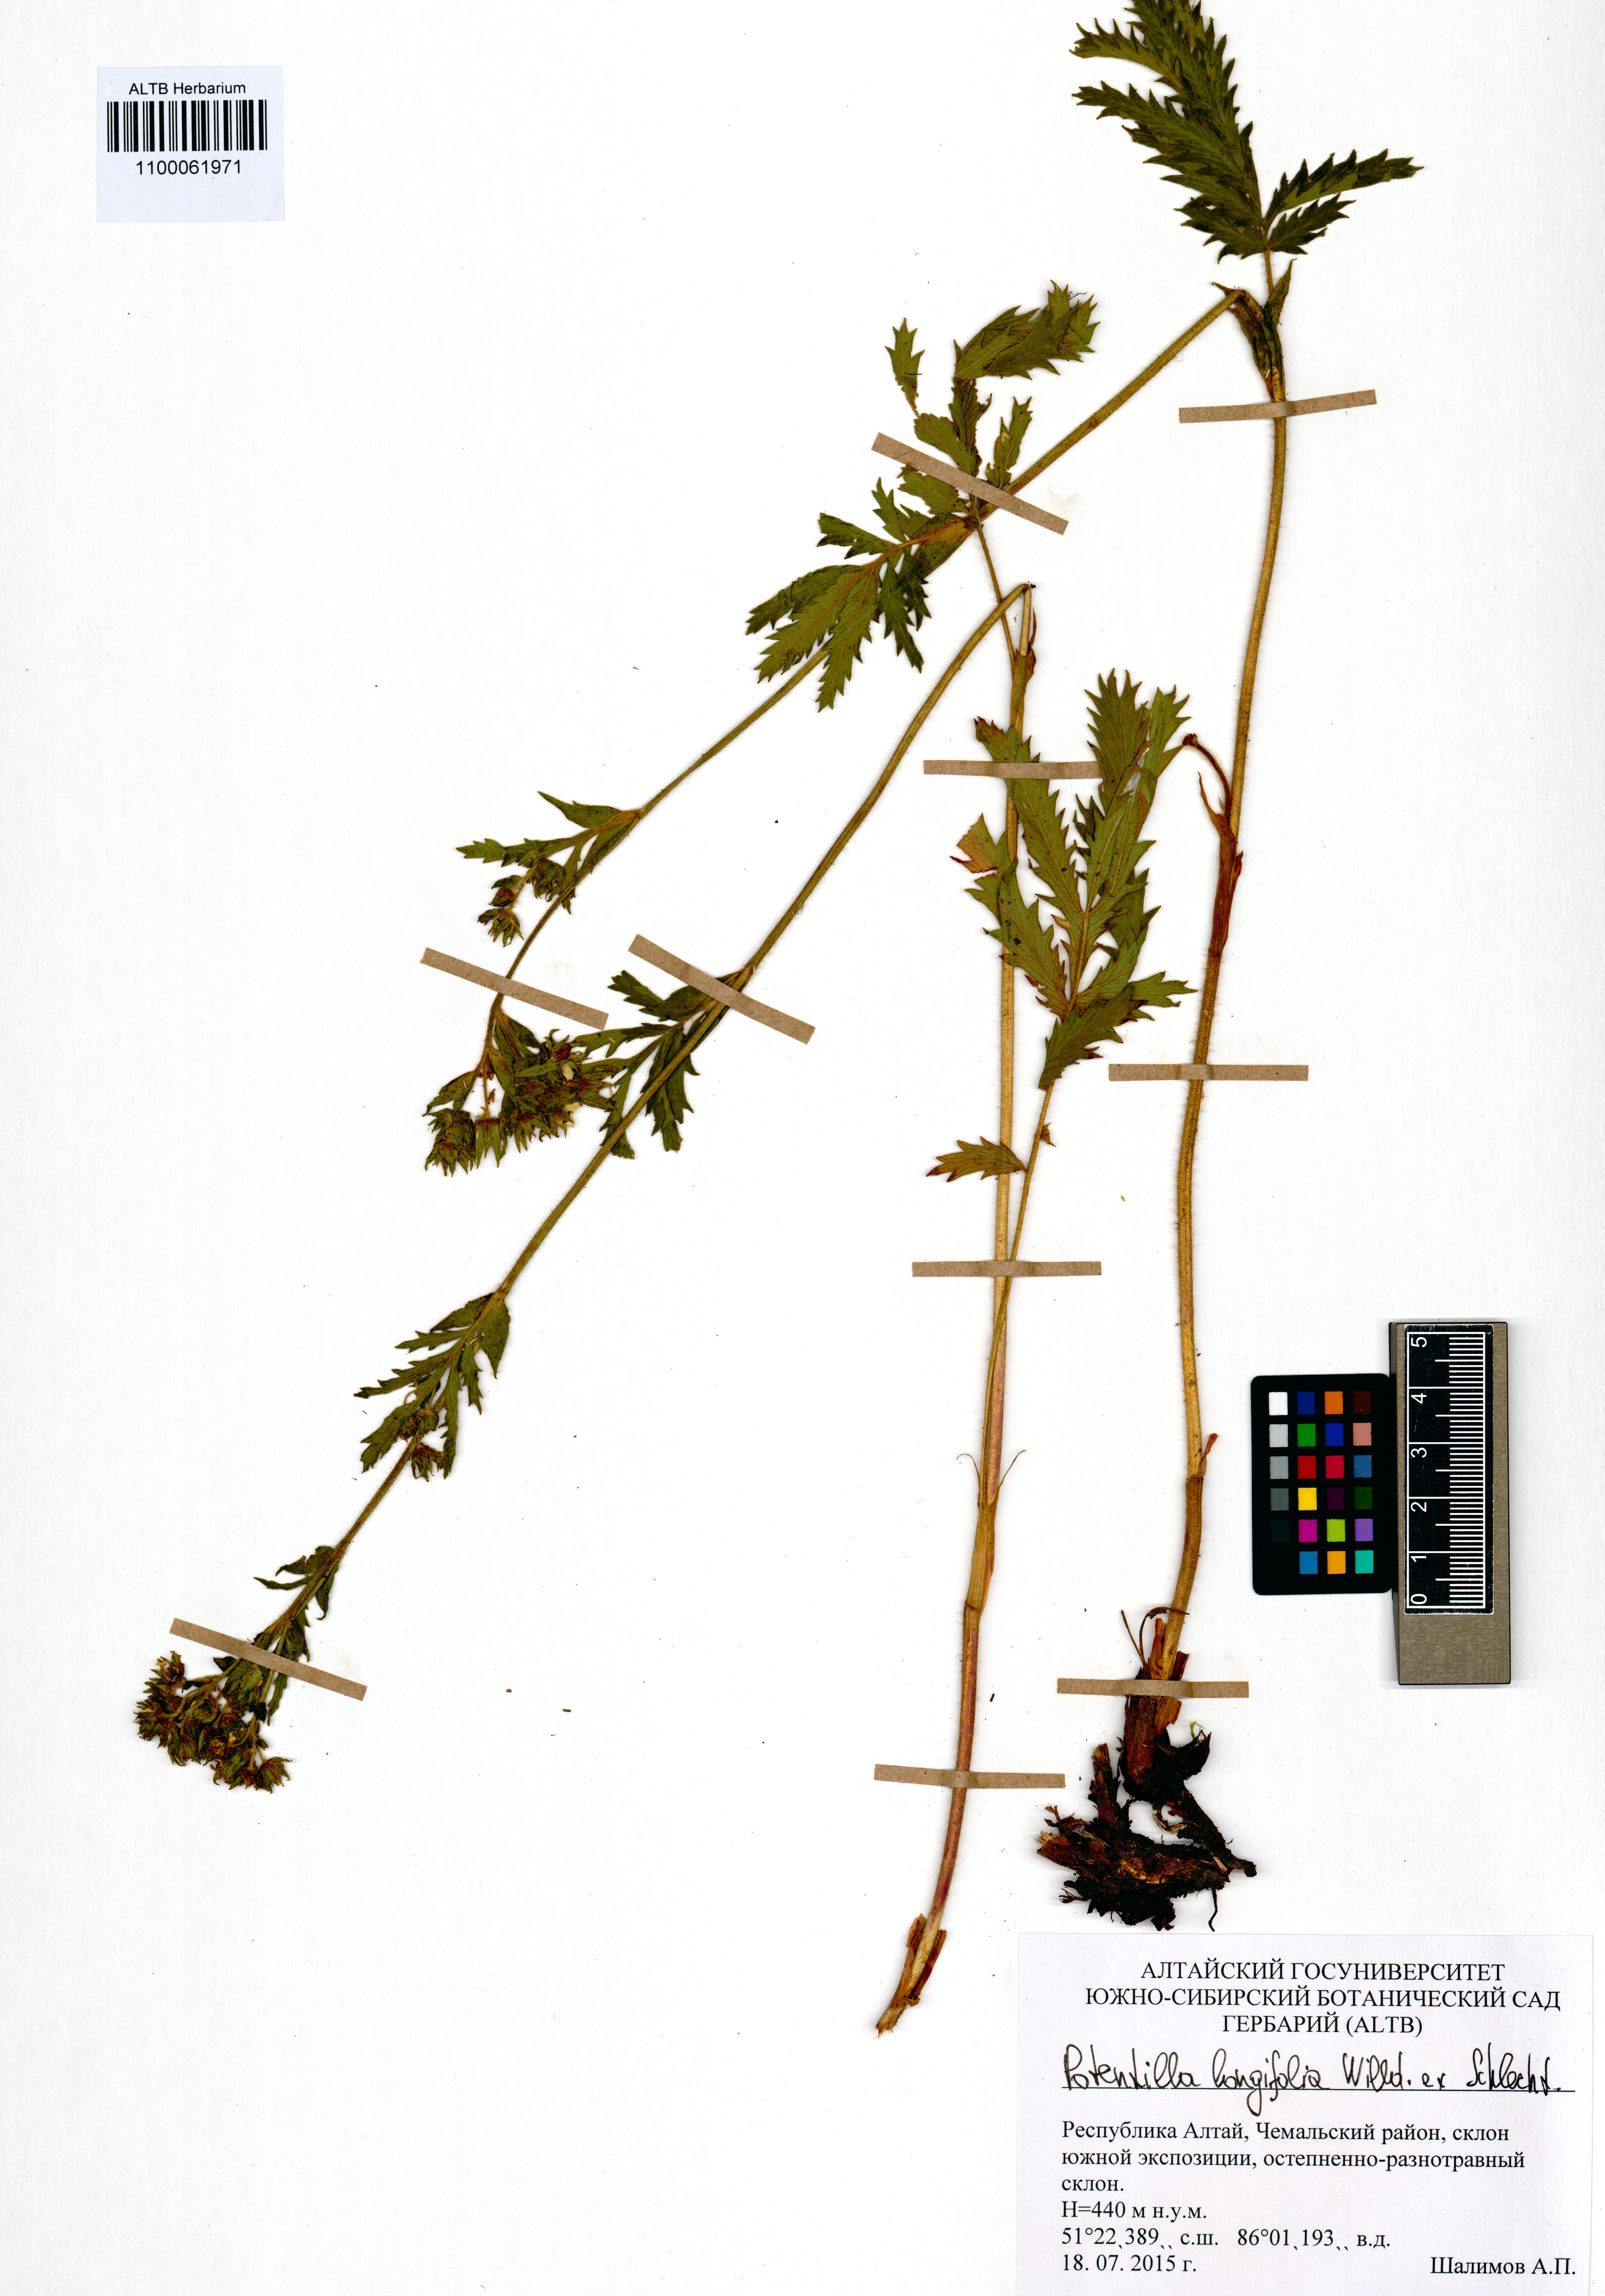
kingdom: Plantae
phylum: Tracheophyta
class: Magnoliopsida
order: Rosales
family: Rosaceae
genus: Potentilla
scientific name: Potentilla longifolia
